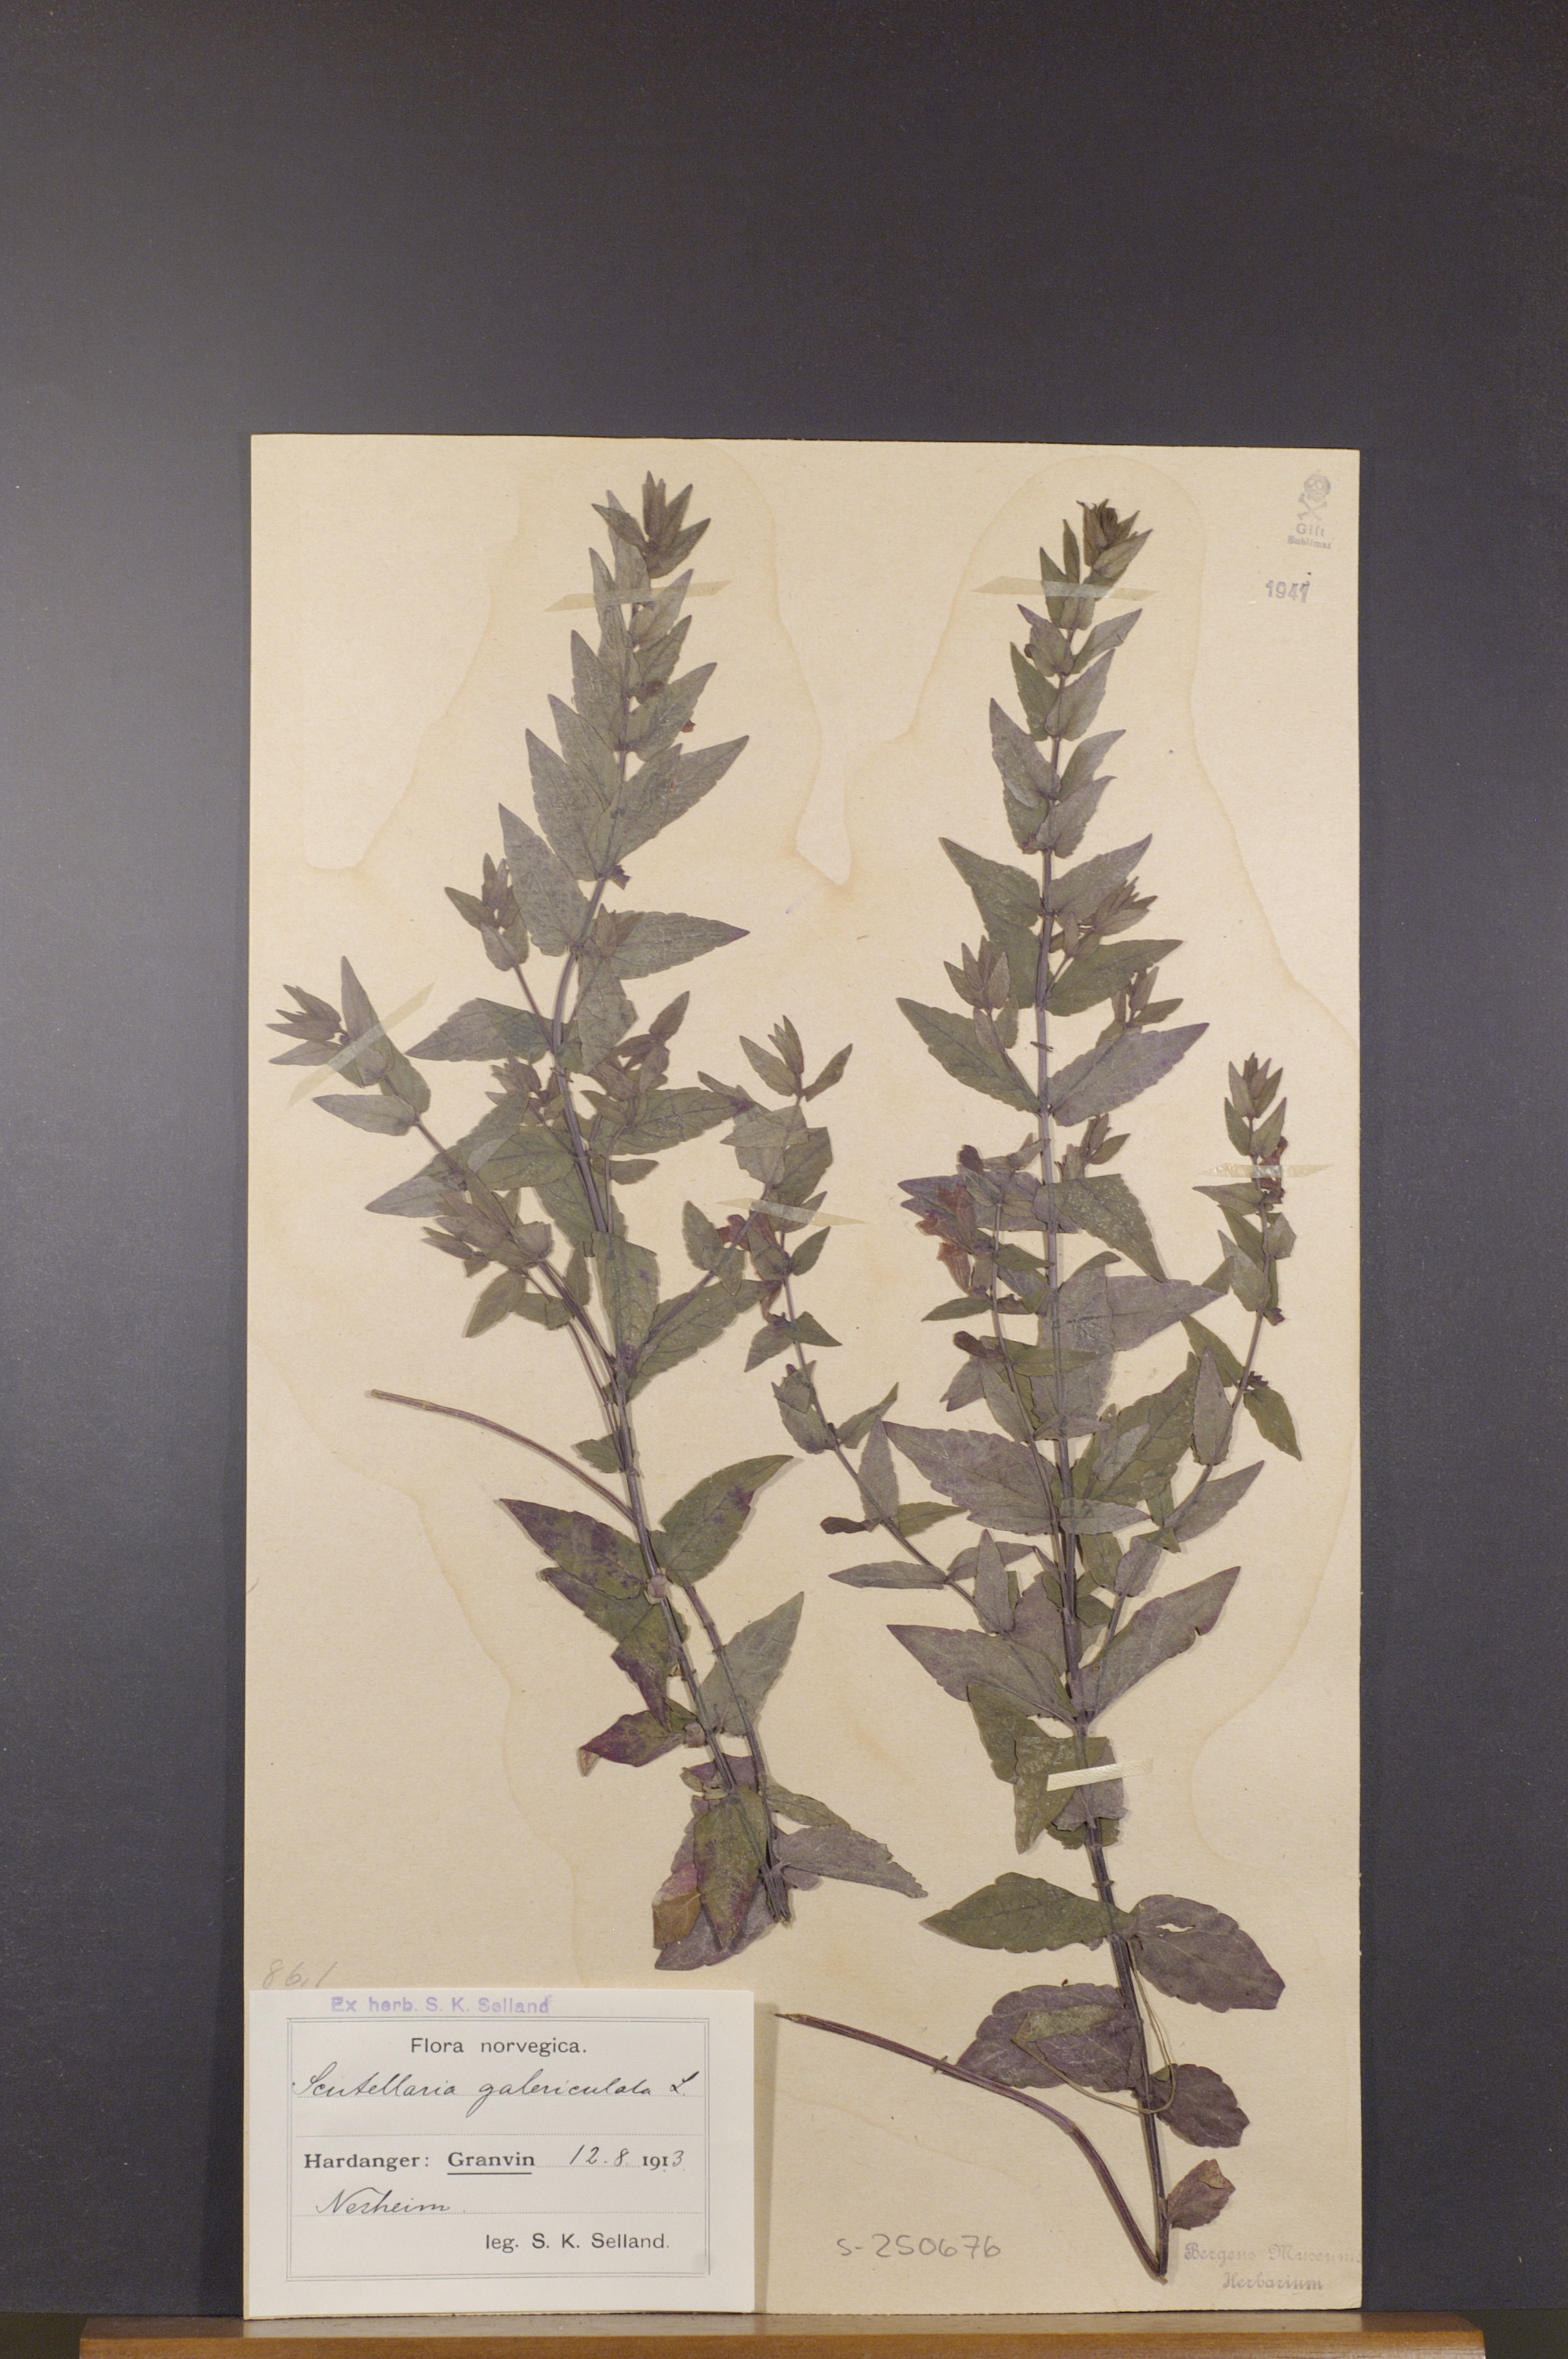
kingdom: Plantae
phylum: Tracheophyta
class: Magnoliopsida
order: Lamiales
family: Lamiaceae
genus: Scutellaria
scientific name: Scutellaria galericulata
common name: Skullcap
